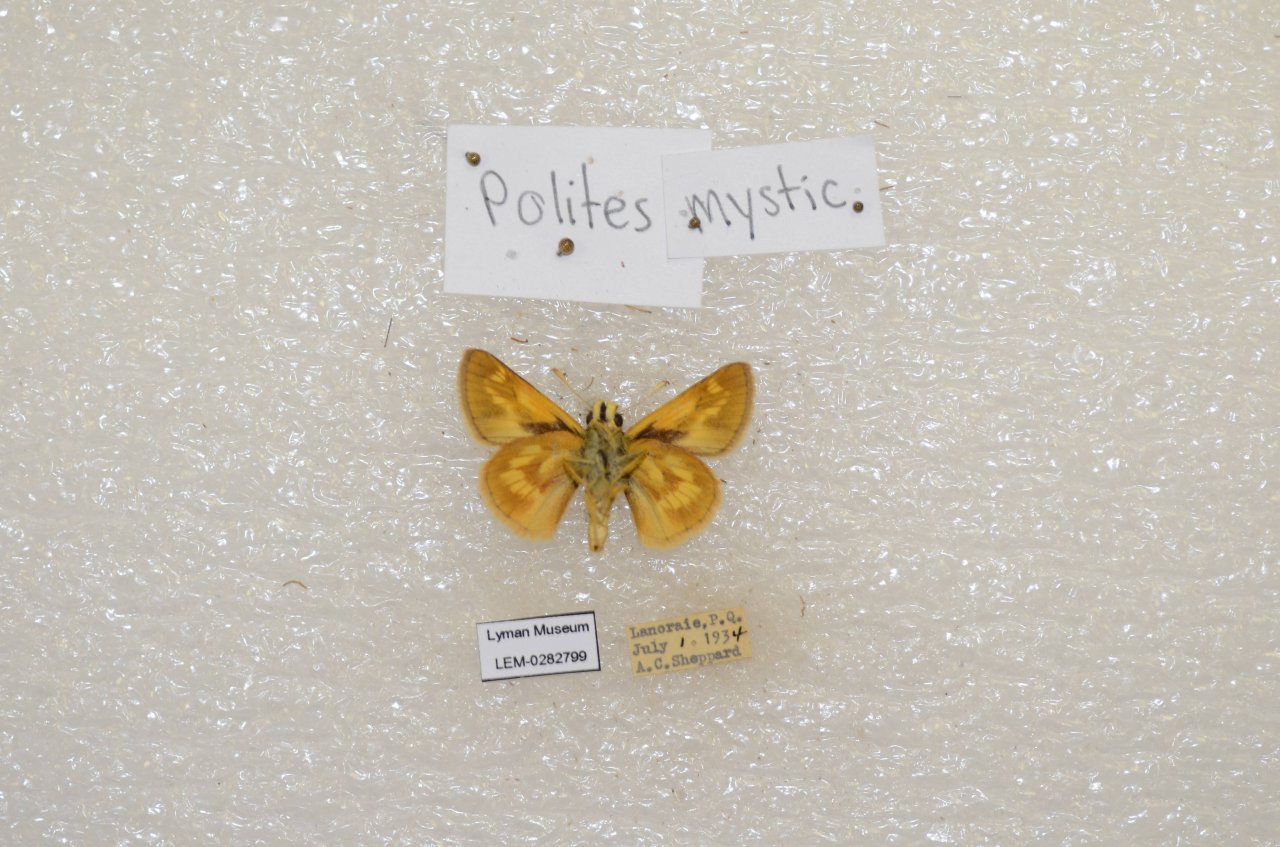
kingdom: Animalia
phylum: Arthropoda
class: Insecta
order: Lepidoptera
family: Hesperiidae
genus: Polites
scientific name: Polites
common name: Long Dash Skipper
